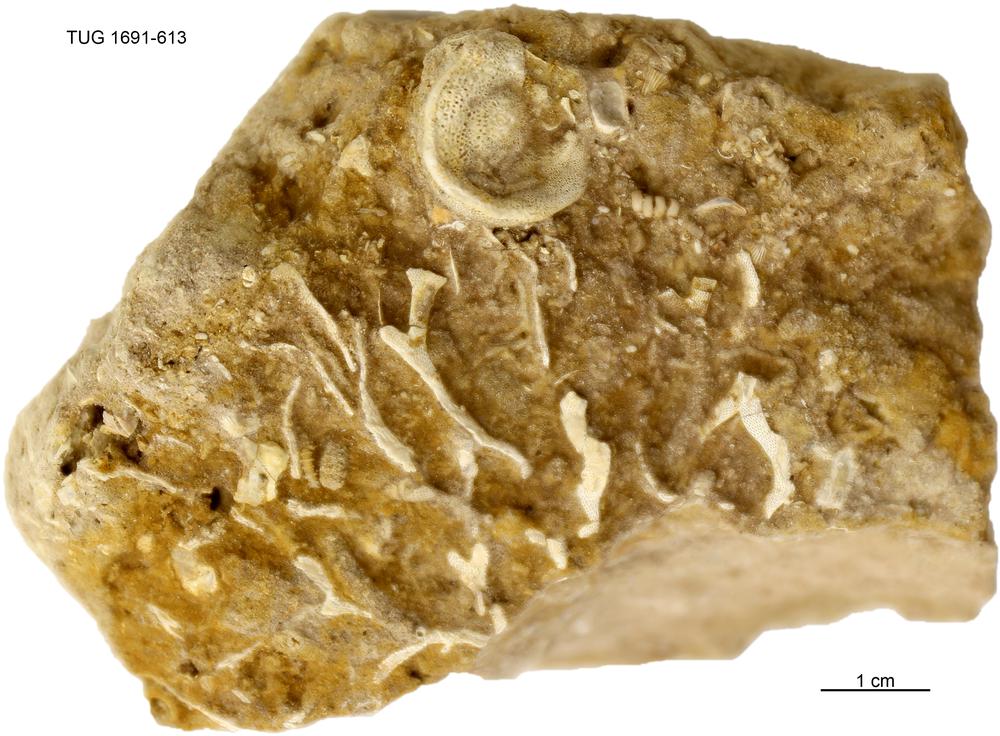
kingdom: Animalia
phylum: Bryozoa
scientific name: Bryozoa
